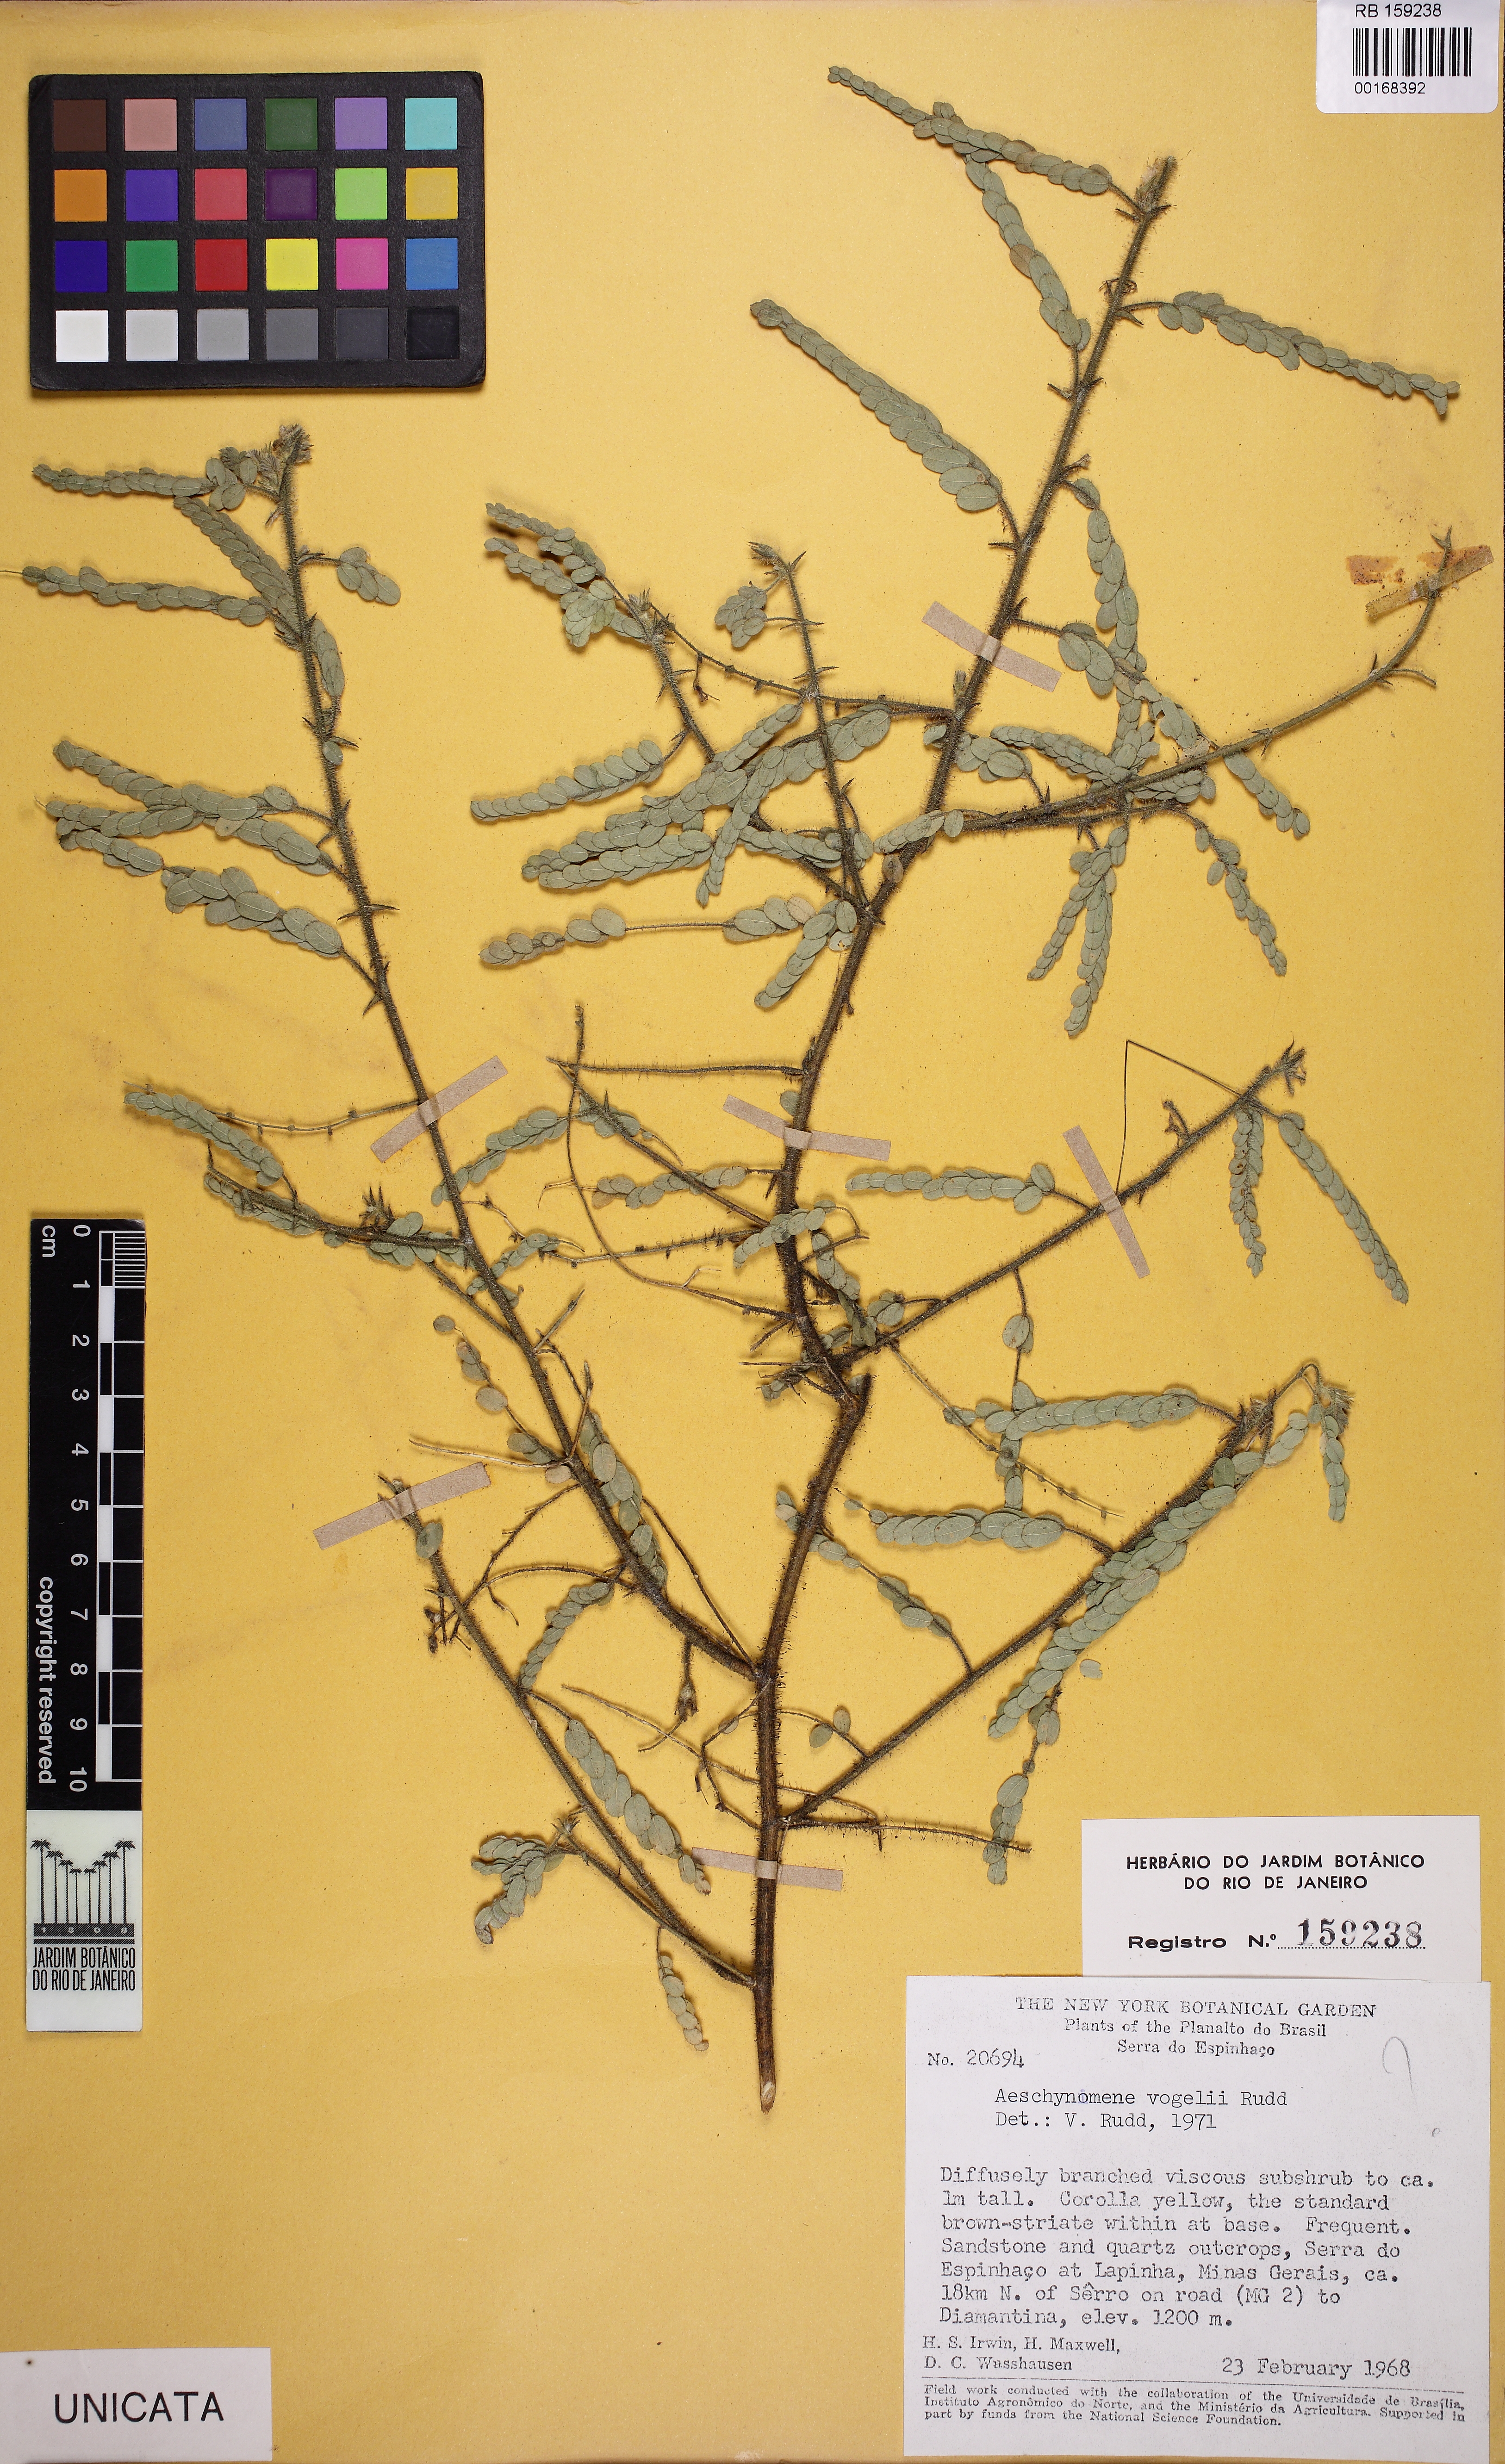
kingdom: Plantae
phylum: Tracheophyta
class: Magnoliopsida
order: Fabales
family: Fabaceae
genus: Ctenodon
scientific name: Ctenodon vogelii
